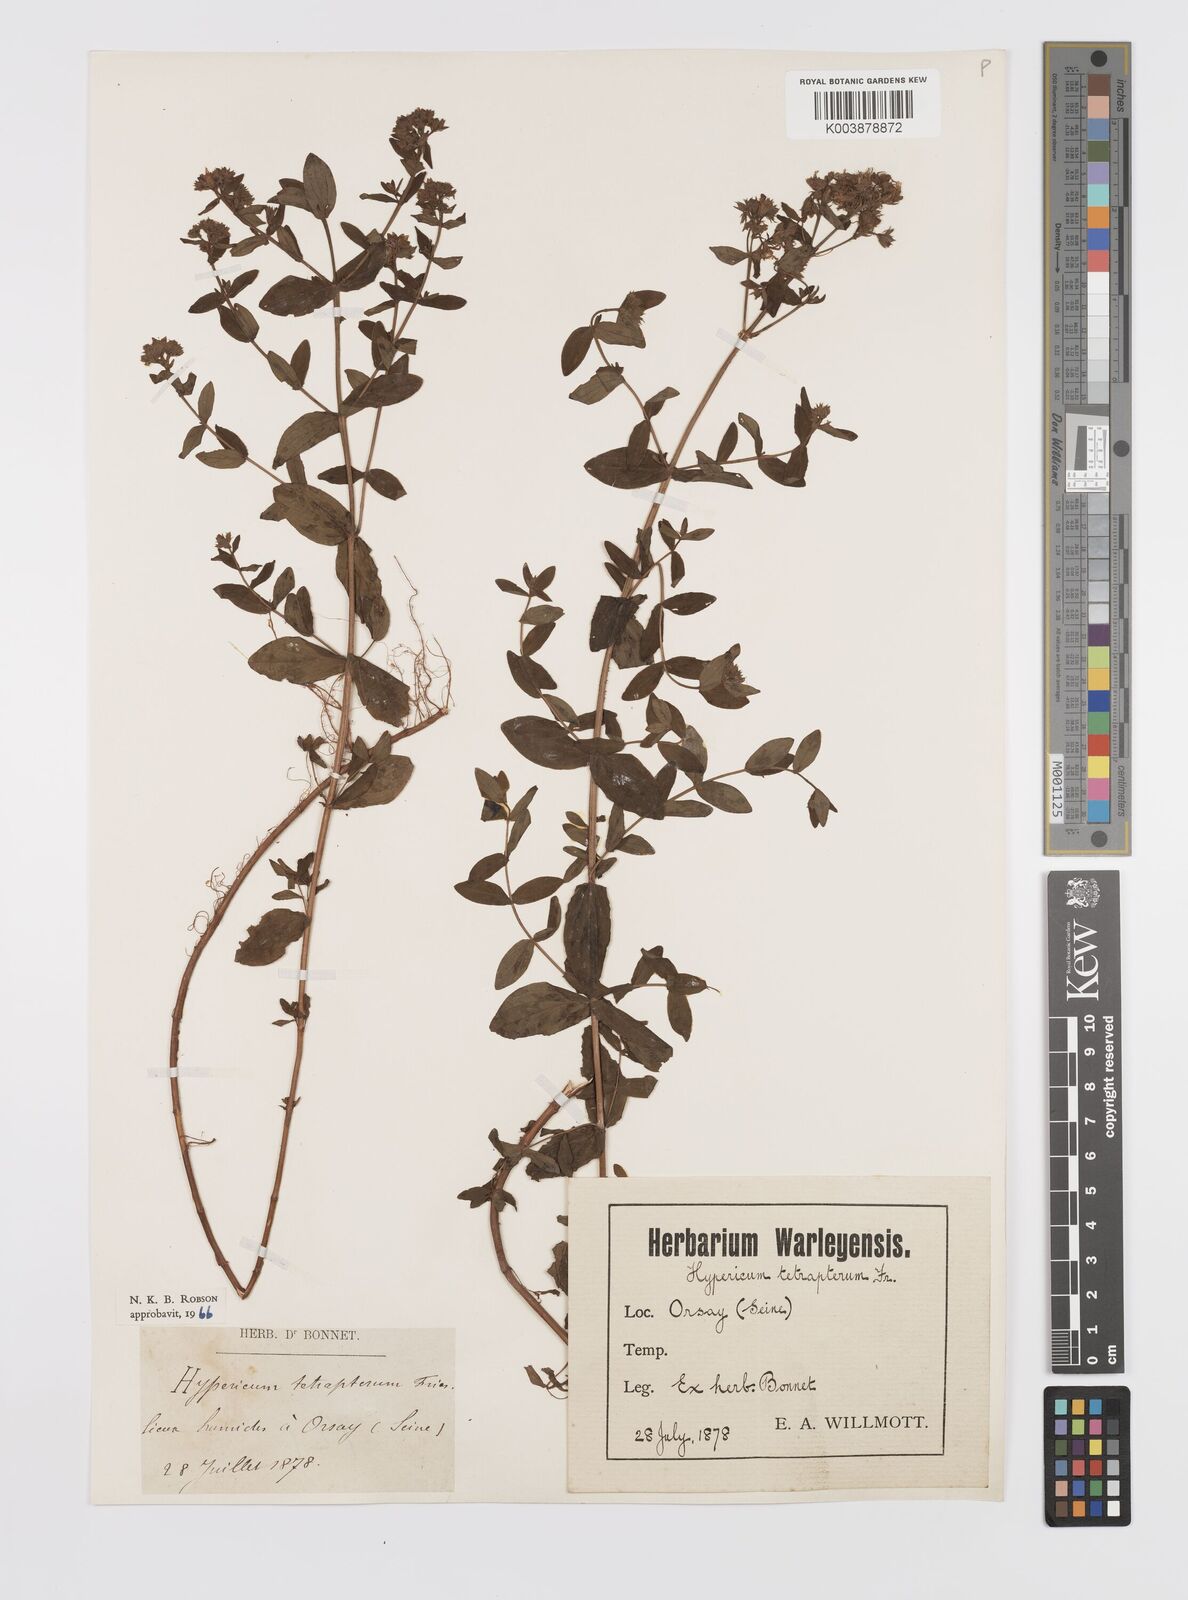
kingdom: Plantae
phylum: Tracheophyta
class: Magnoliopsida
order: Malpighiales
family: Hypericaceae
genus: Hypericum
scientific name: Hypericum tetrapterum
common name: Square-stalked st. john's-wort
